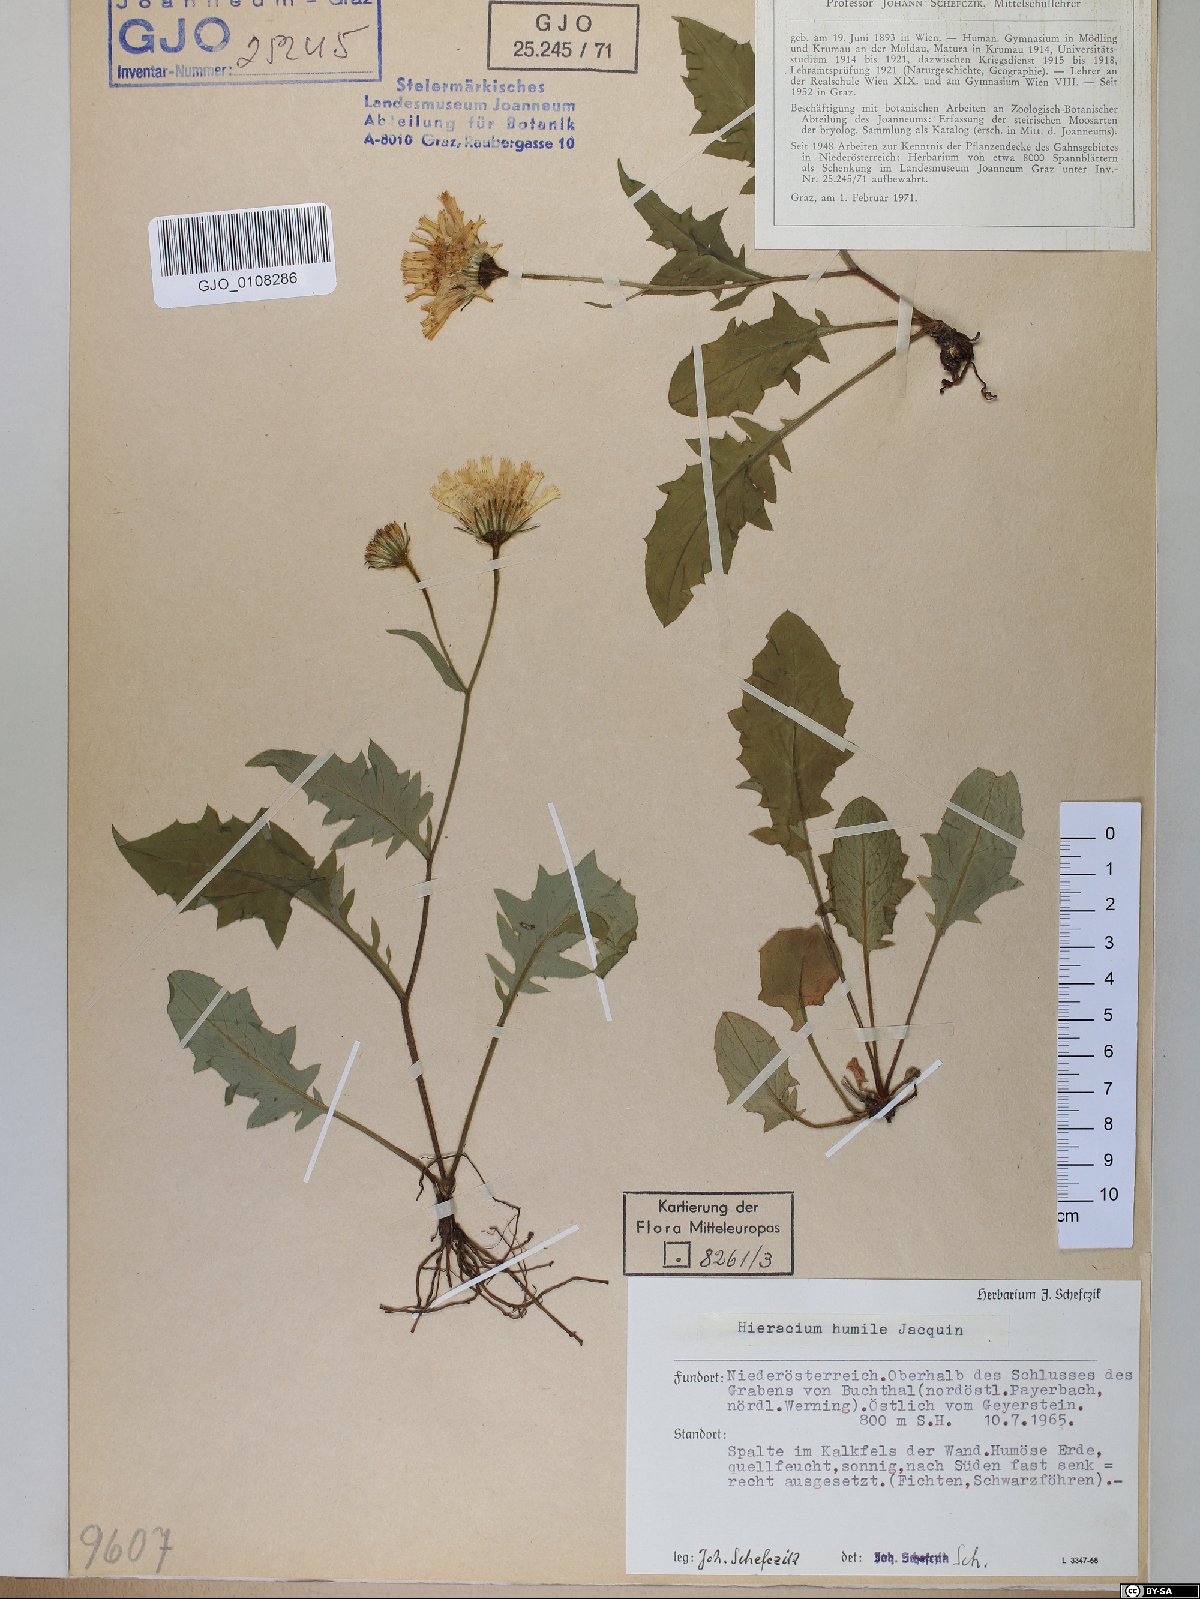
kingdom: Plantae
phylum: Tracheophyta
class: Magnoliopsida
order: Asterales
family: Asteraceae
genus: Hieracium
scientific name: Hieracium humile
